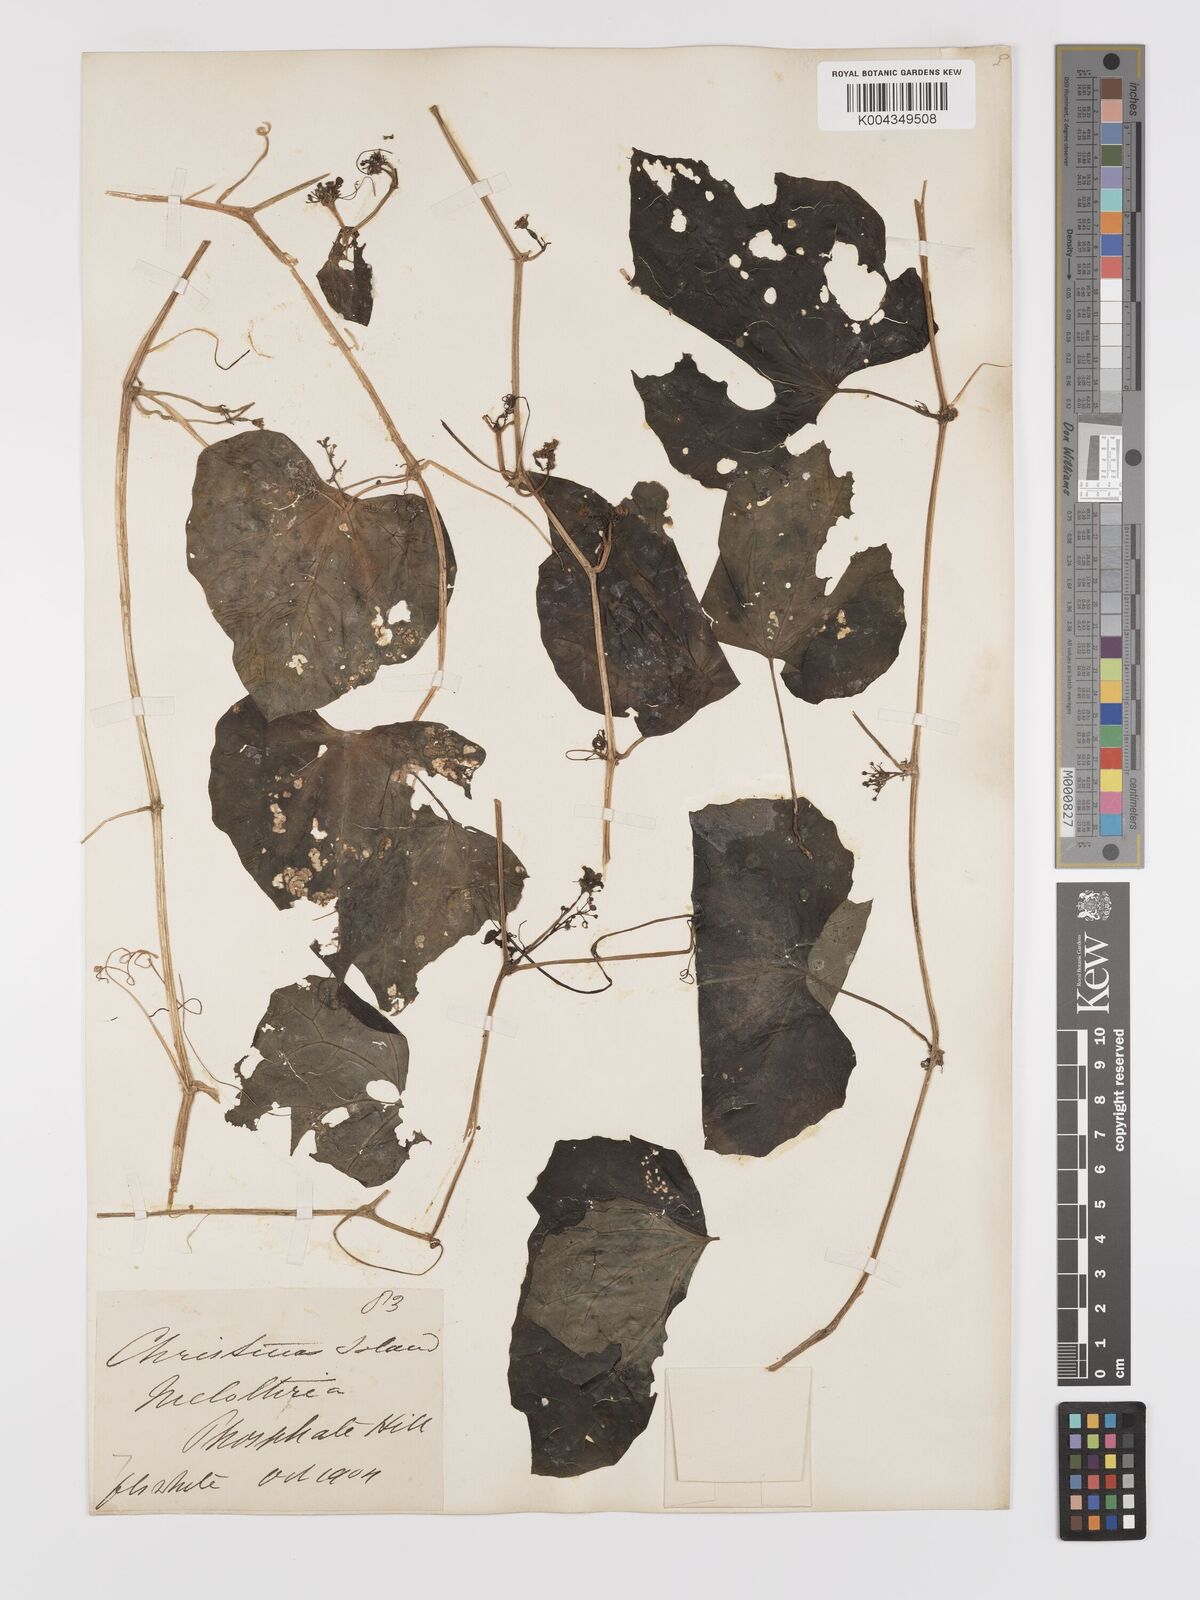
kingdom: Plantae
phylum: Tracheophyta
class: Magnoliopsida
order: Cucurbitales
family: Cucurbitaceae
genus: Zehneria
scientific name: Zehneria mucronata
